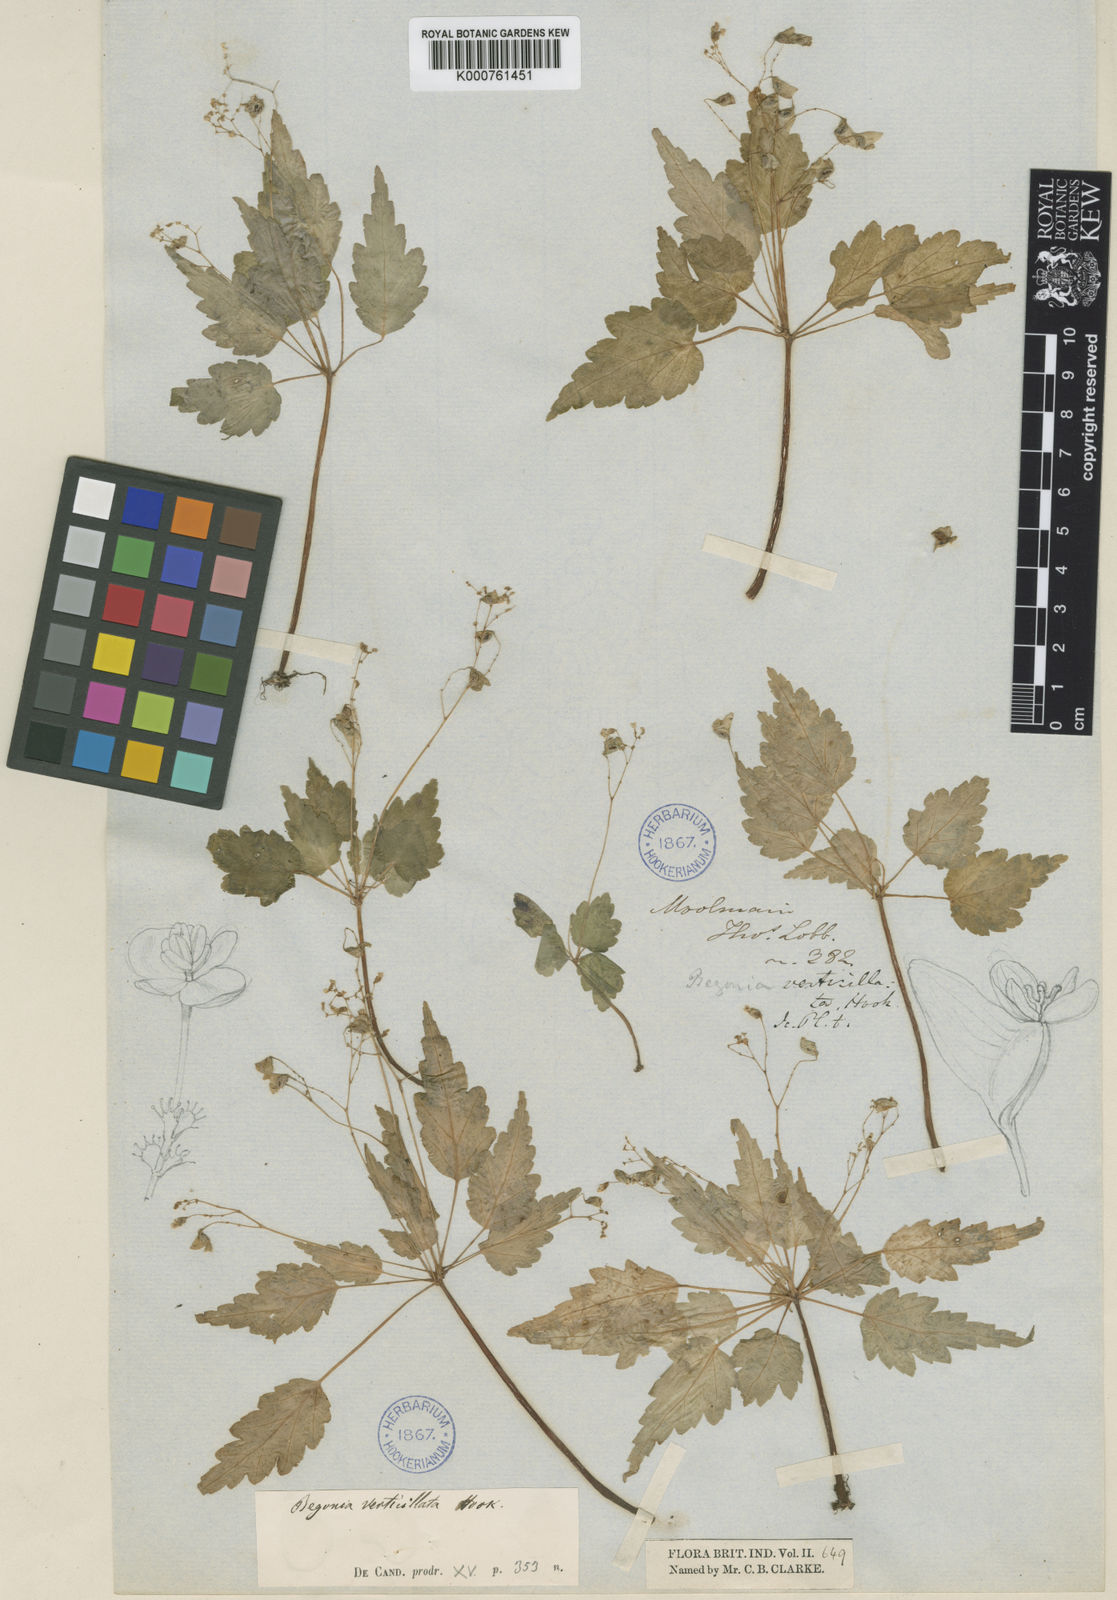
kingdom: Plantae
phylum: Tracheophyta
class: Magnoliopsida
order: Cucurbitales
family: Begoniaceae
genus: Begonia
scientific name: Begonia adenopoda
